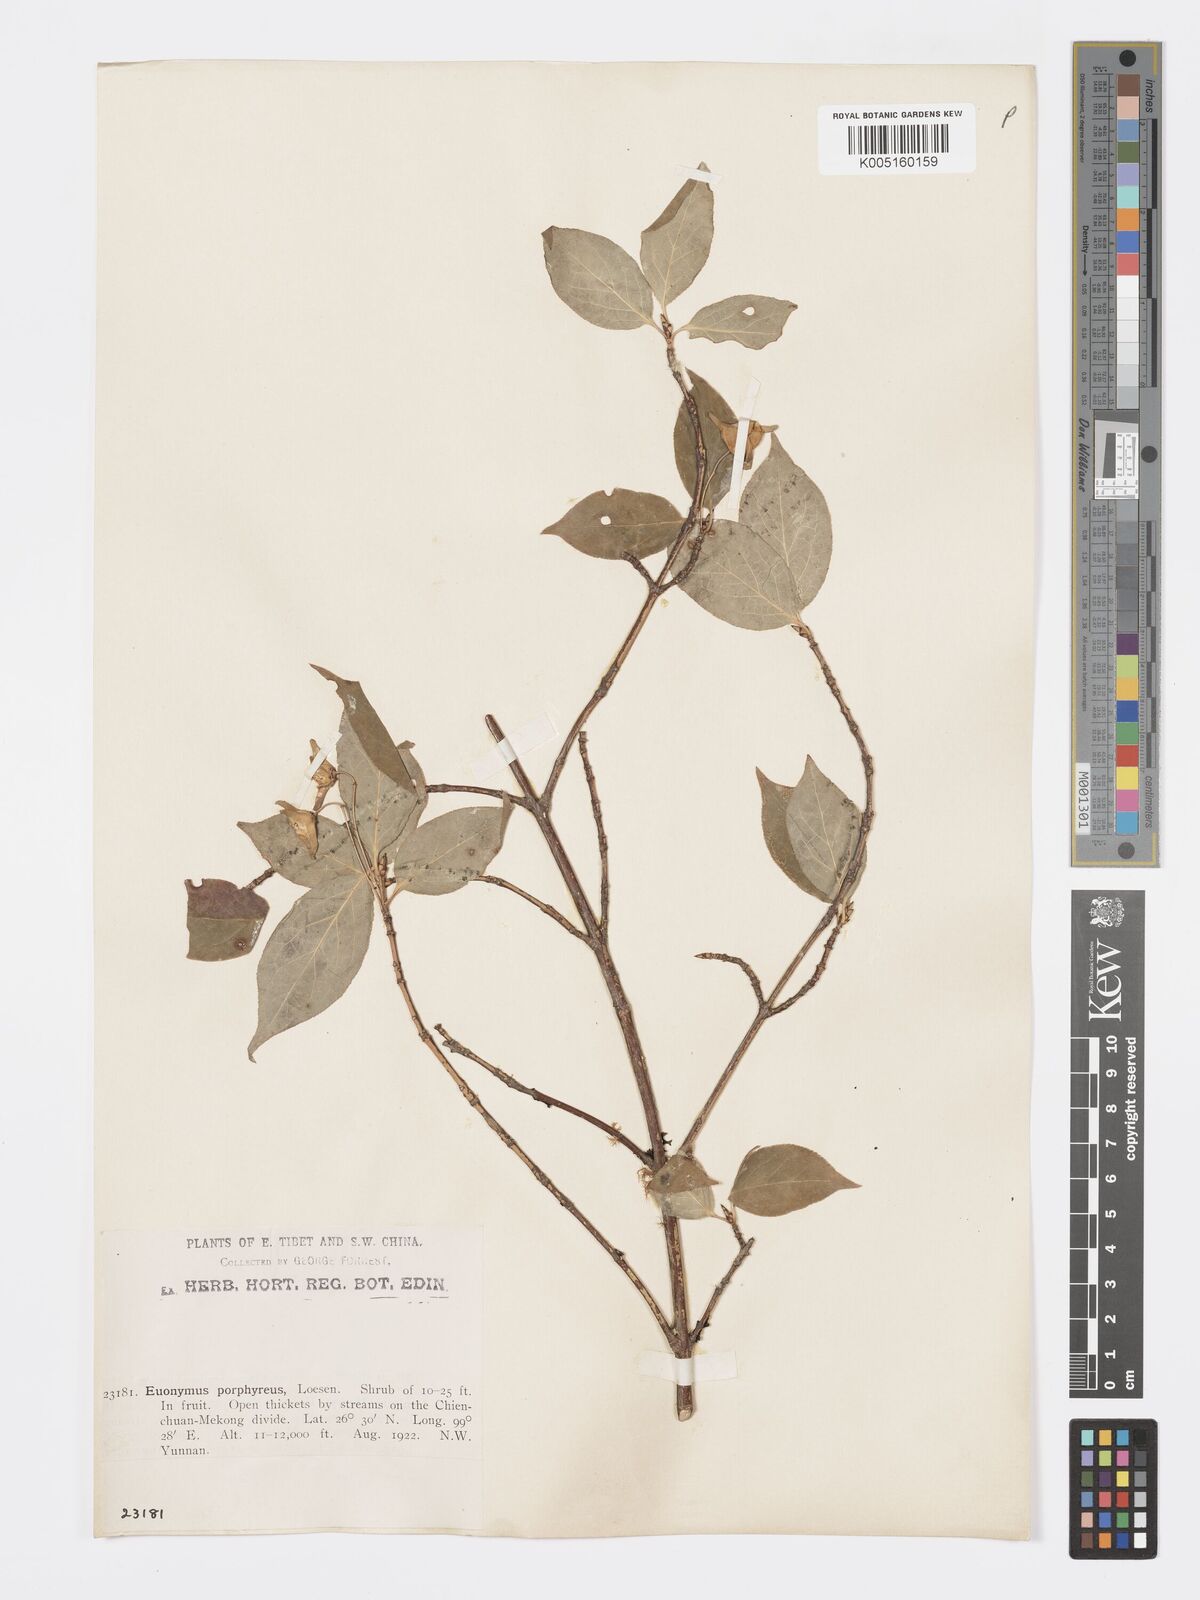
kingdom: Plantae
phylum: Tracheophyta
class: Magnoliopsida
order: Celastrales
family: Celastraceae
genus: Euonymus
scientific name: Euonymus frigidus
